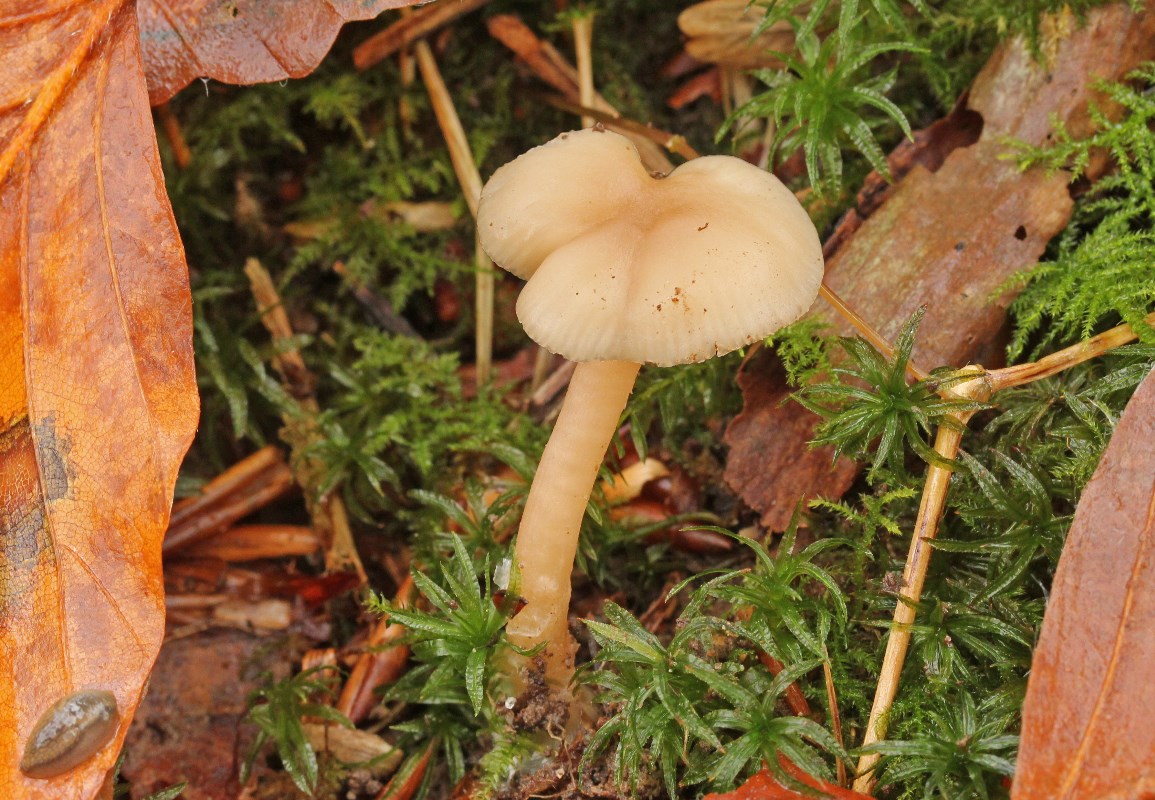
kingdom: Fungi
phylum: Basidiomycota
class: Agaricomycetes
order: Agaricales
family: Tricholomataceae
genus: Clitocybe
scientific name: Clitocybe fragrans
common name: vellugtende tragthat
